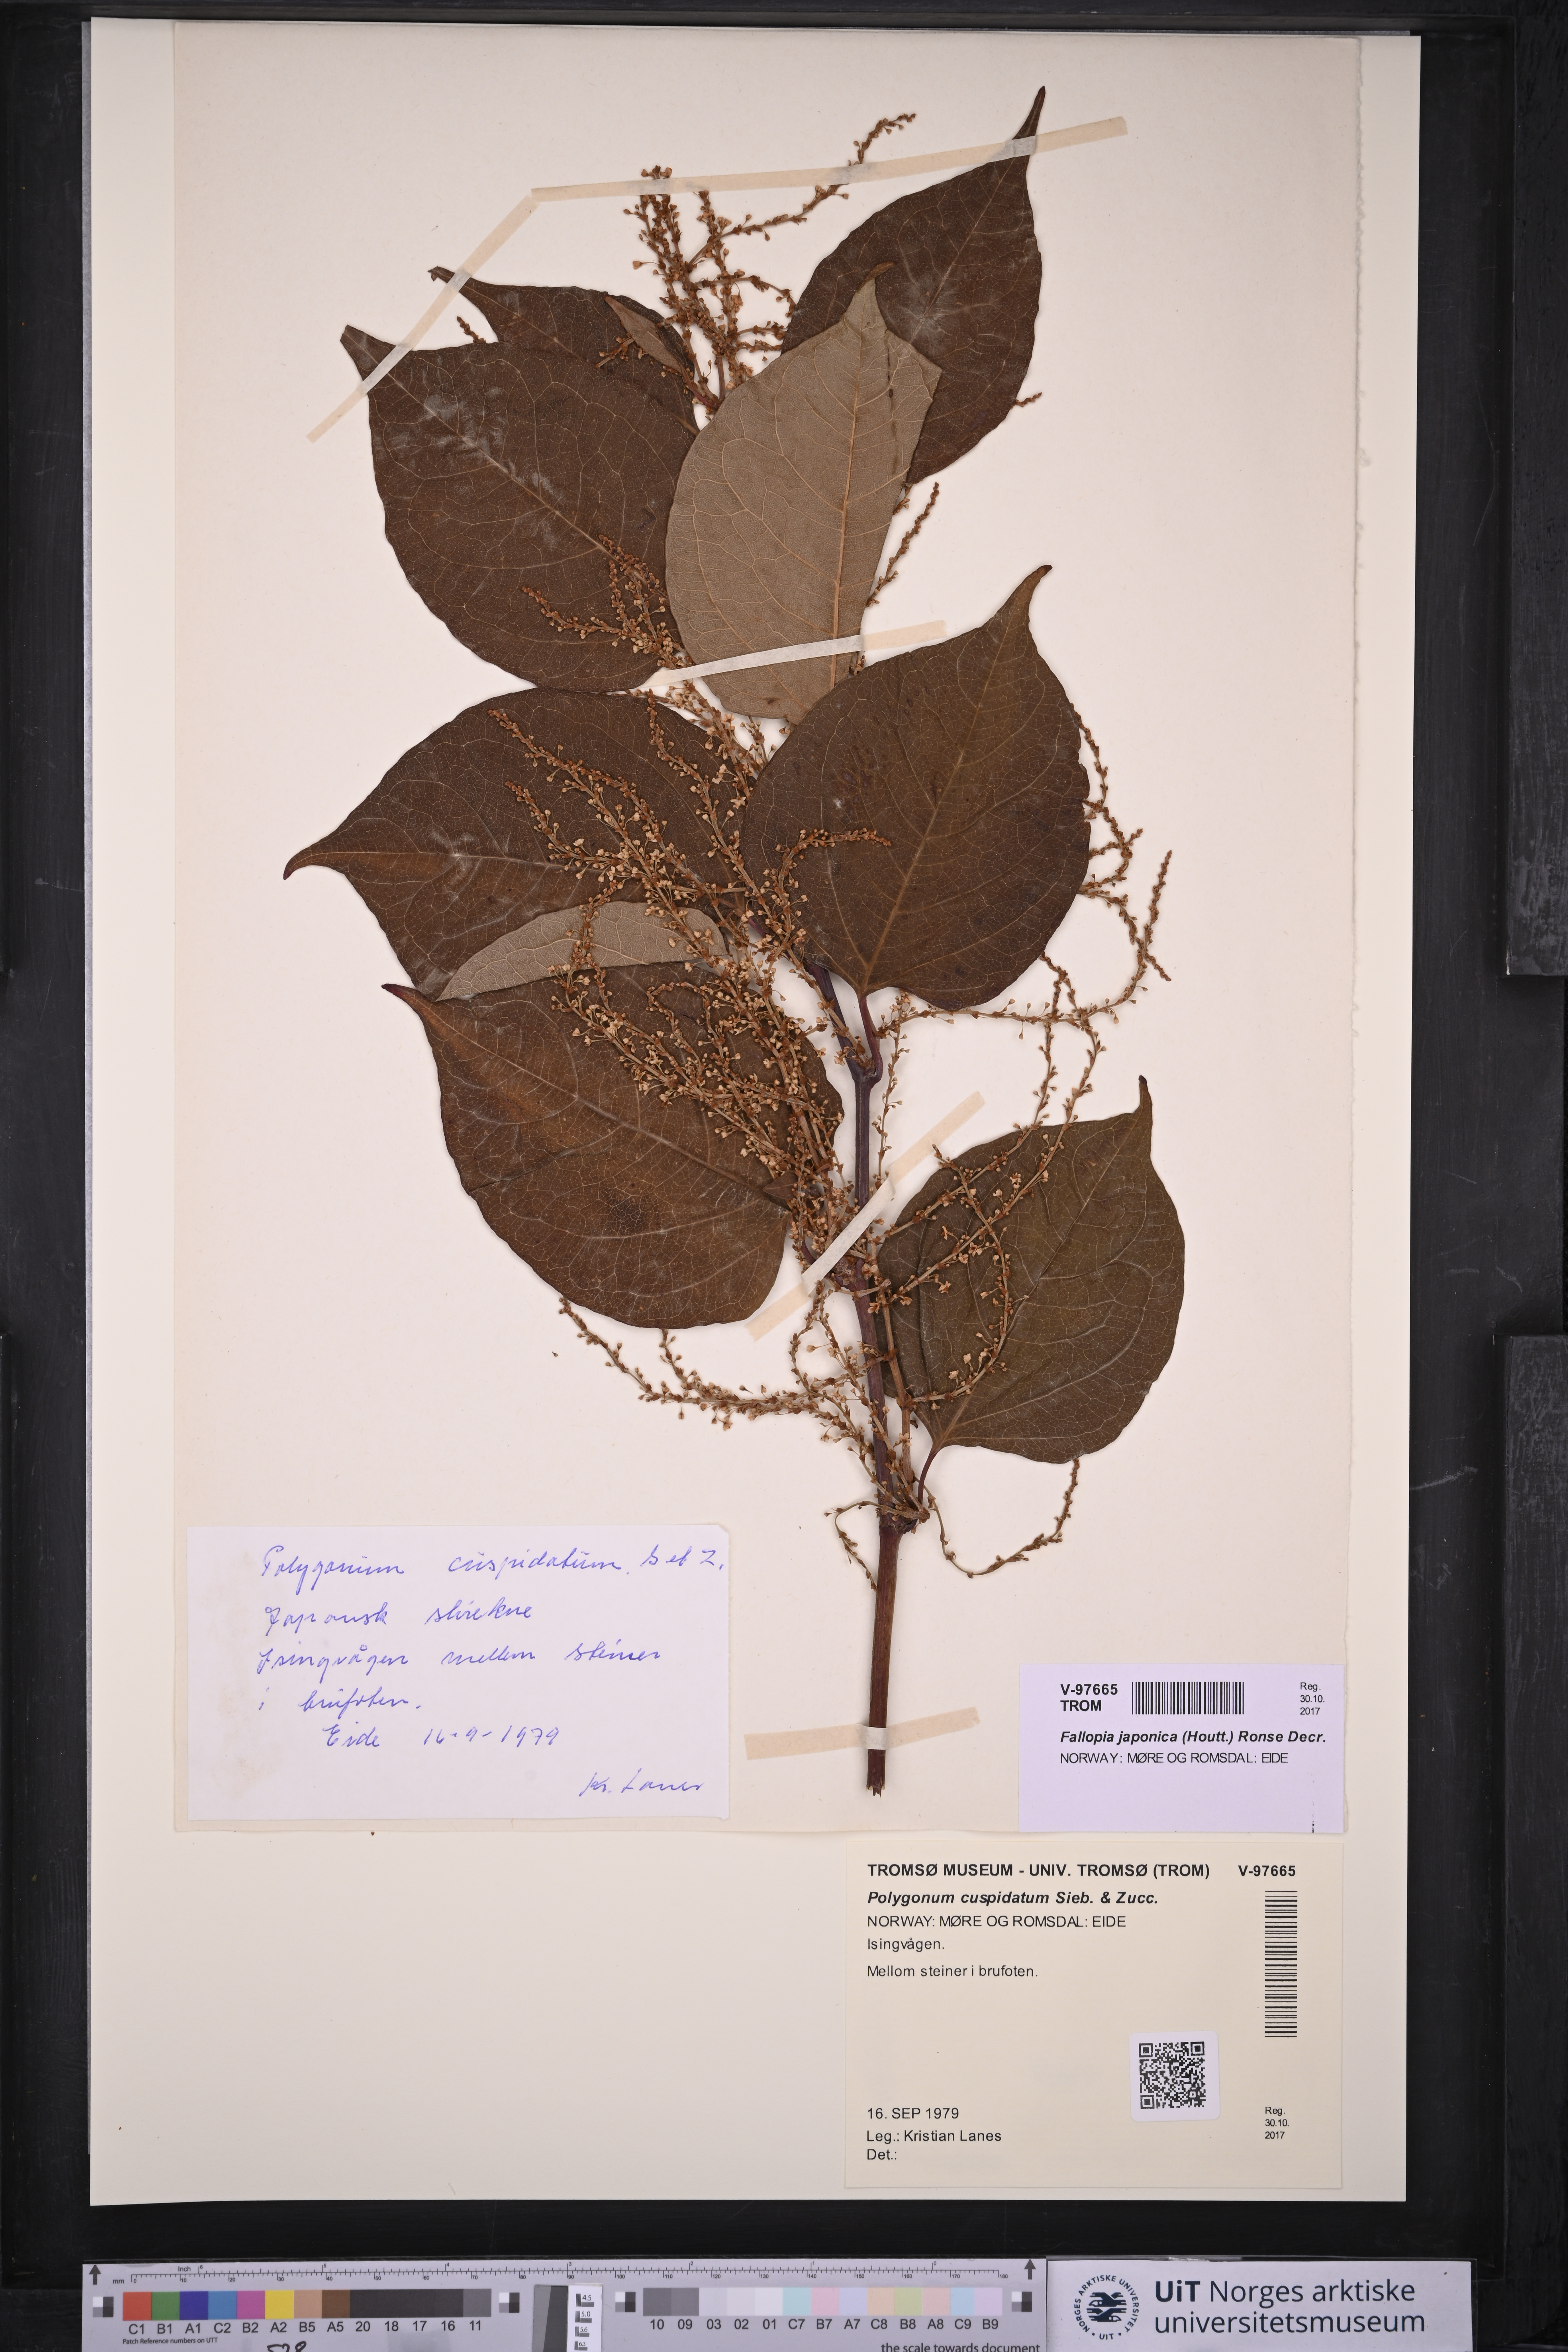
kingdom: Plantae
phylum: Tracheophyta
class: Magnoliopsida
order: Caryophyllales
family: Polygonaceae
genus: Reynoutria
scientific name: Reynoutria japonica
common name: Japanese knotweed
